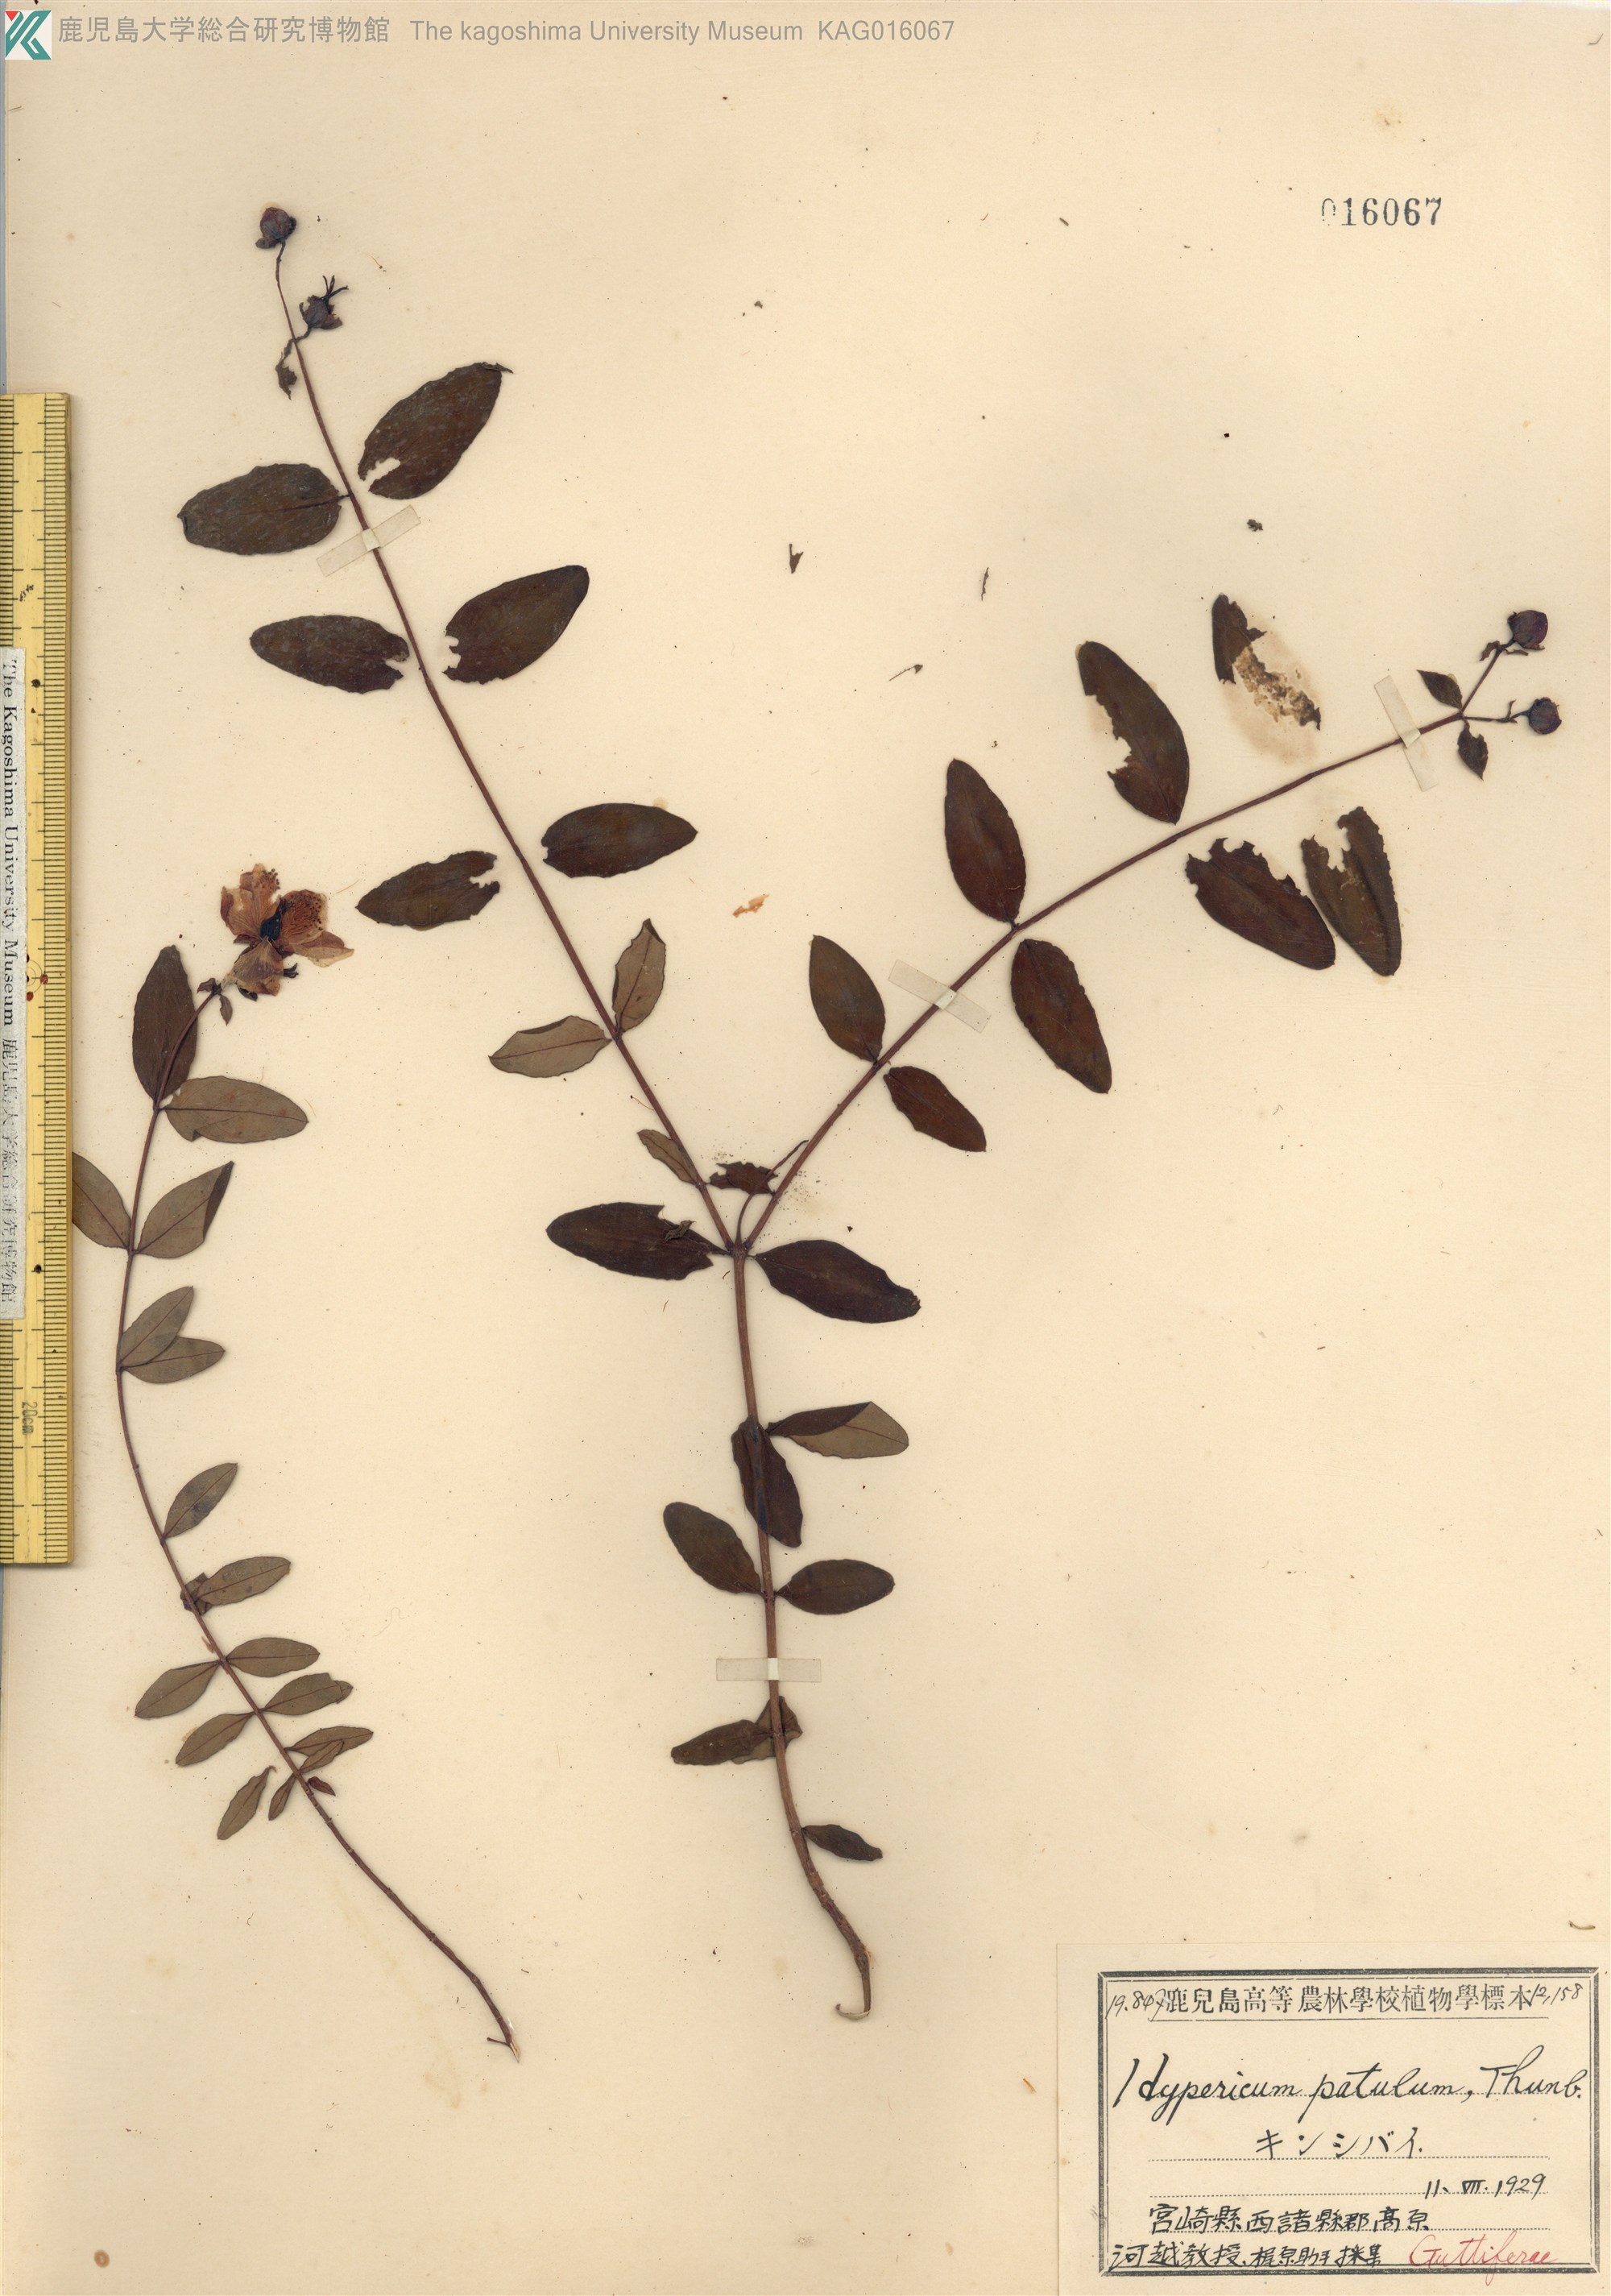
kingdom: Plantae
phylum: Tracheophyta
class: Magnoliopsida
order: Malpighiales
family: Hypericaceae
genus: Hypericum
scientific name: Hypericum patulum
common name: キンシバイ
